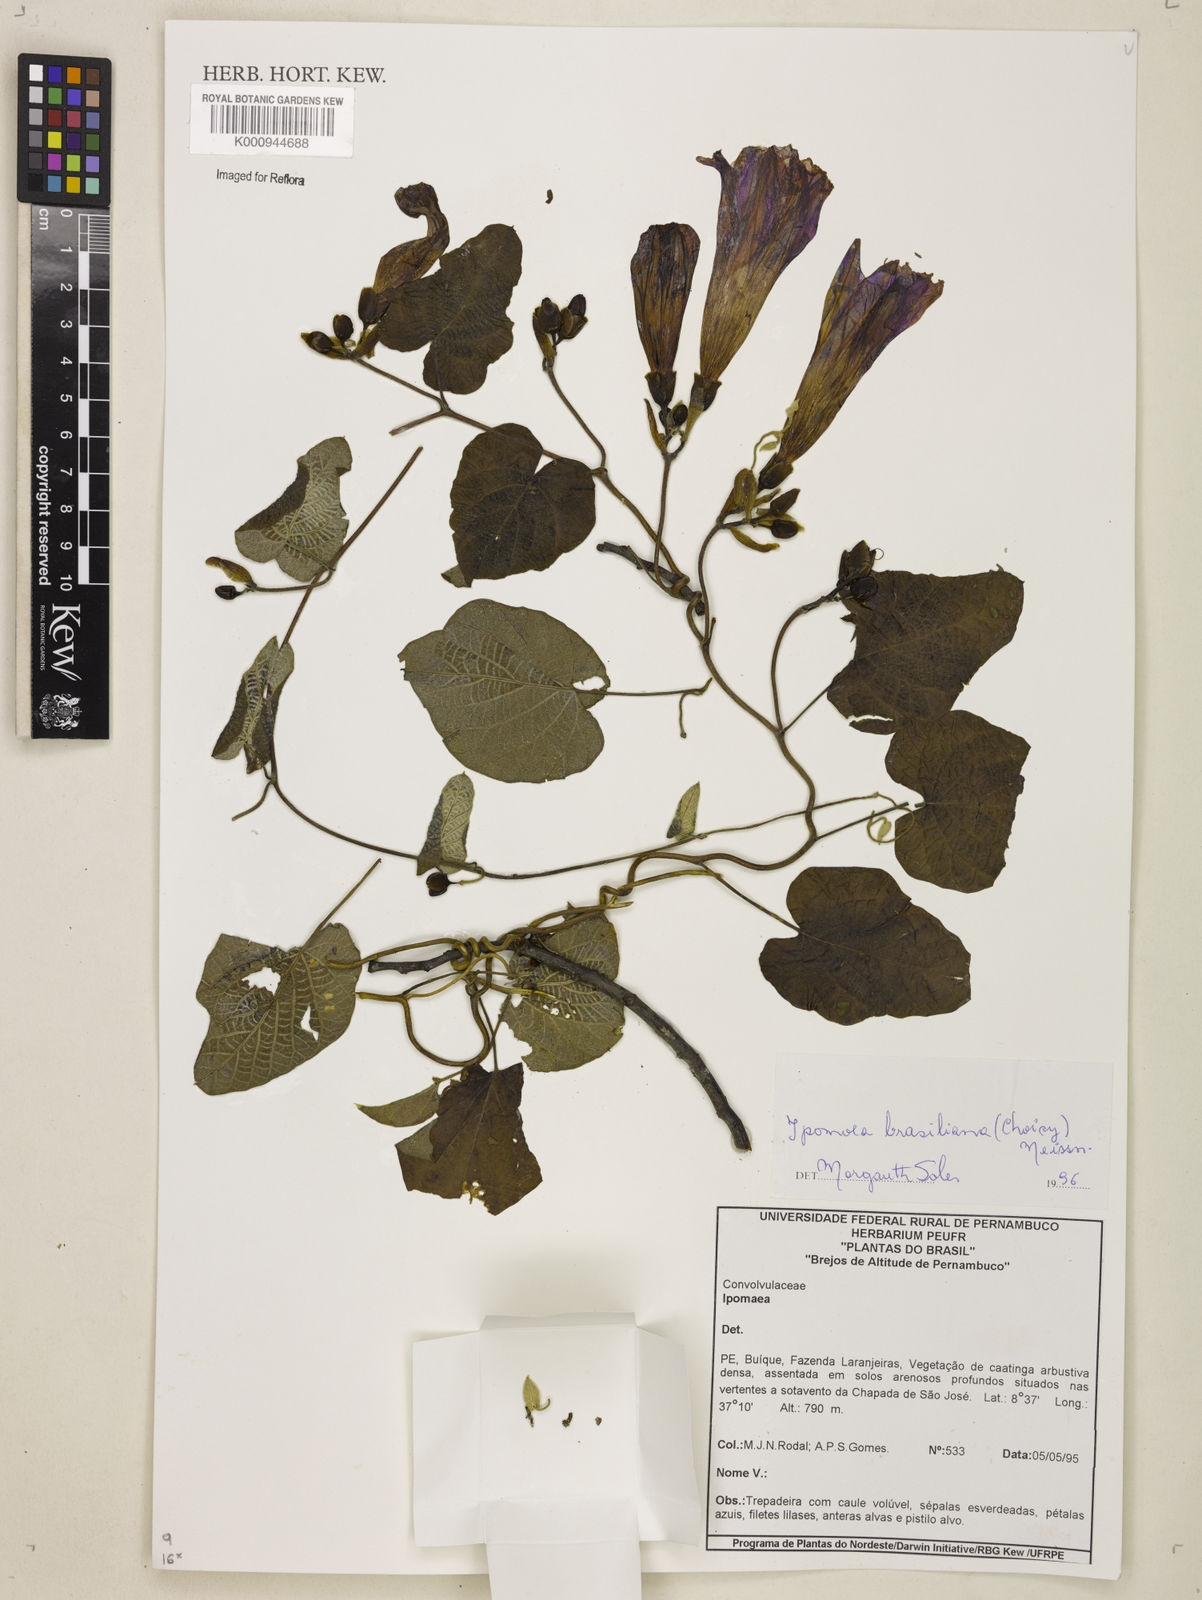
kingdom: Plantae
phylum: Tracheophyta
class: Magnoliopsida
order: Solanales
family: Convolvulaceae
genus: Ipomoea
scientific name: Ipomoea brasiliana
